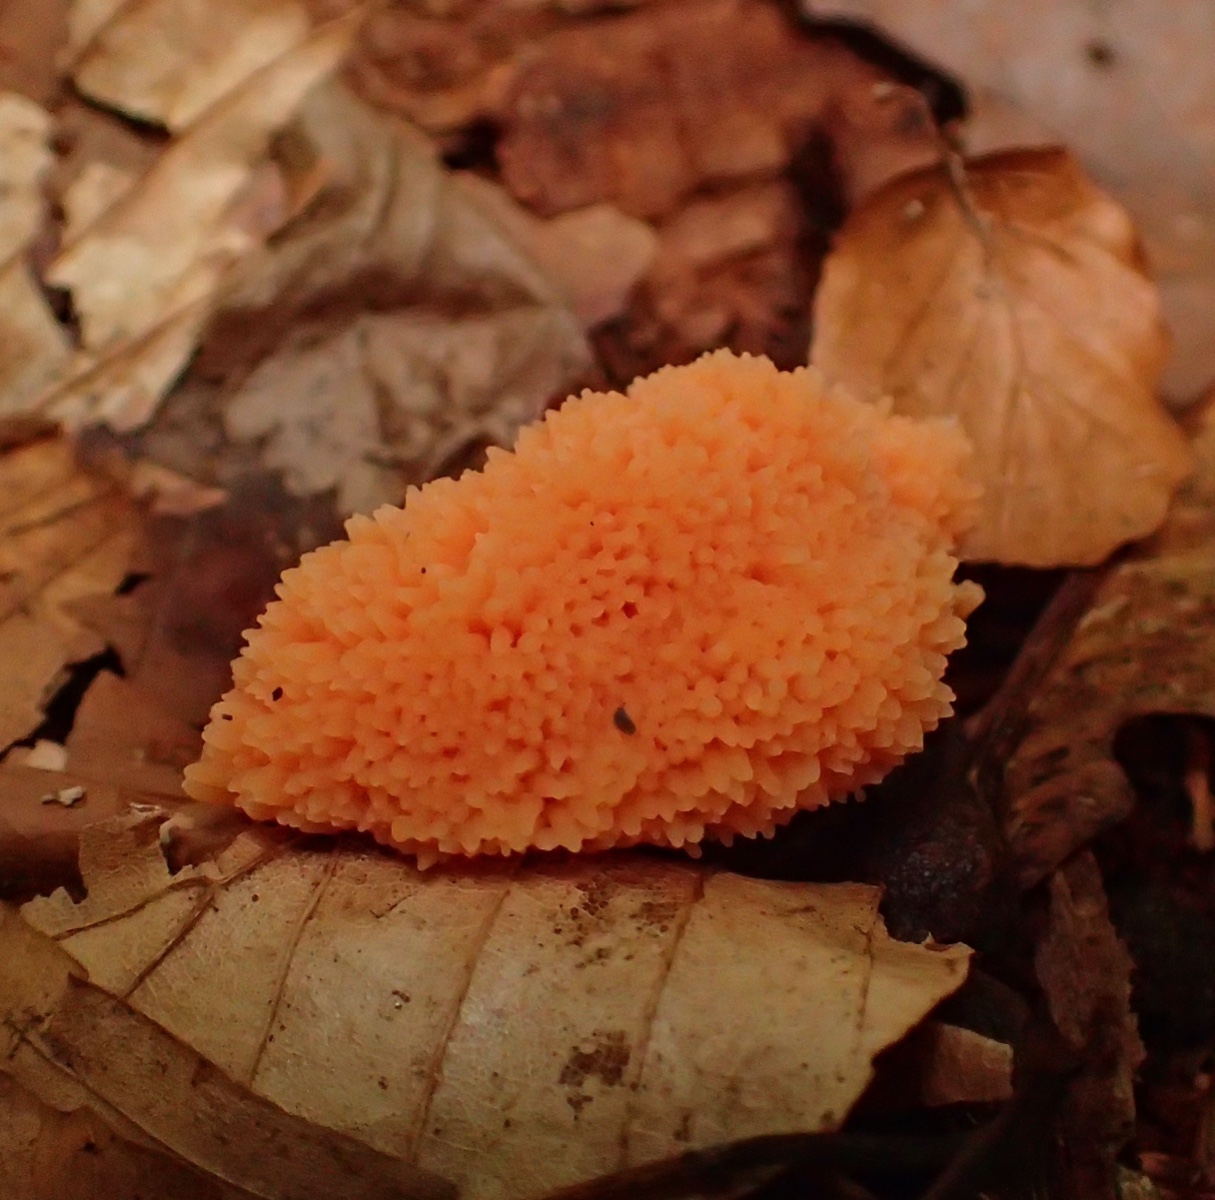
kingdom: Protozoa
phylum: Mycetozoa
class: Myxomycetes
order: Cribrariales
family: Tubiferaceae
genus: Tubifera
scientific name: Tubifera ferruginosa
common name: kanel-støvrør
